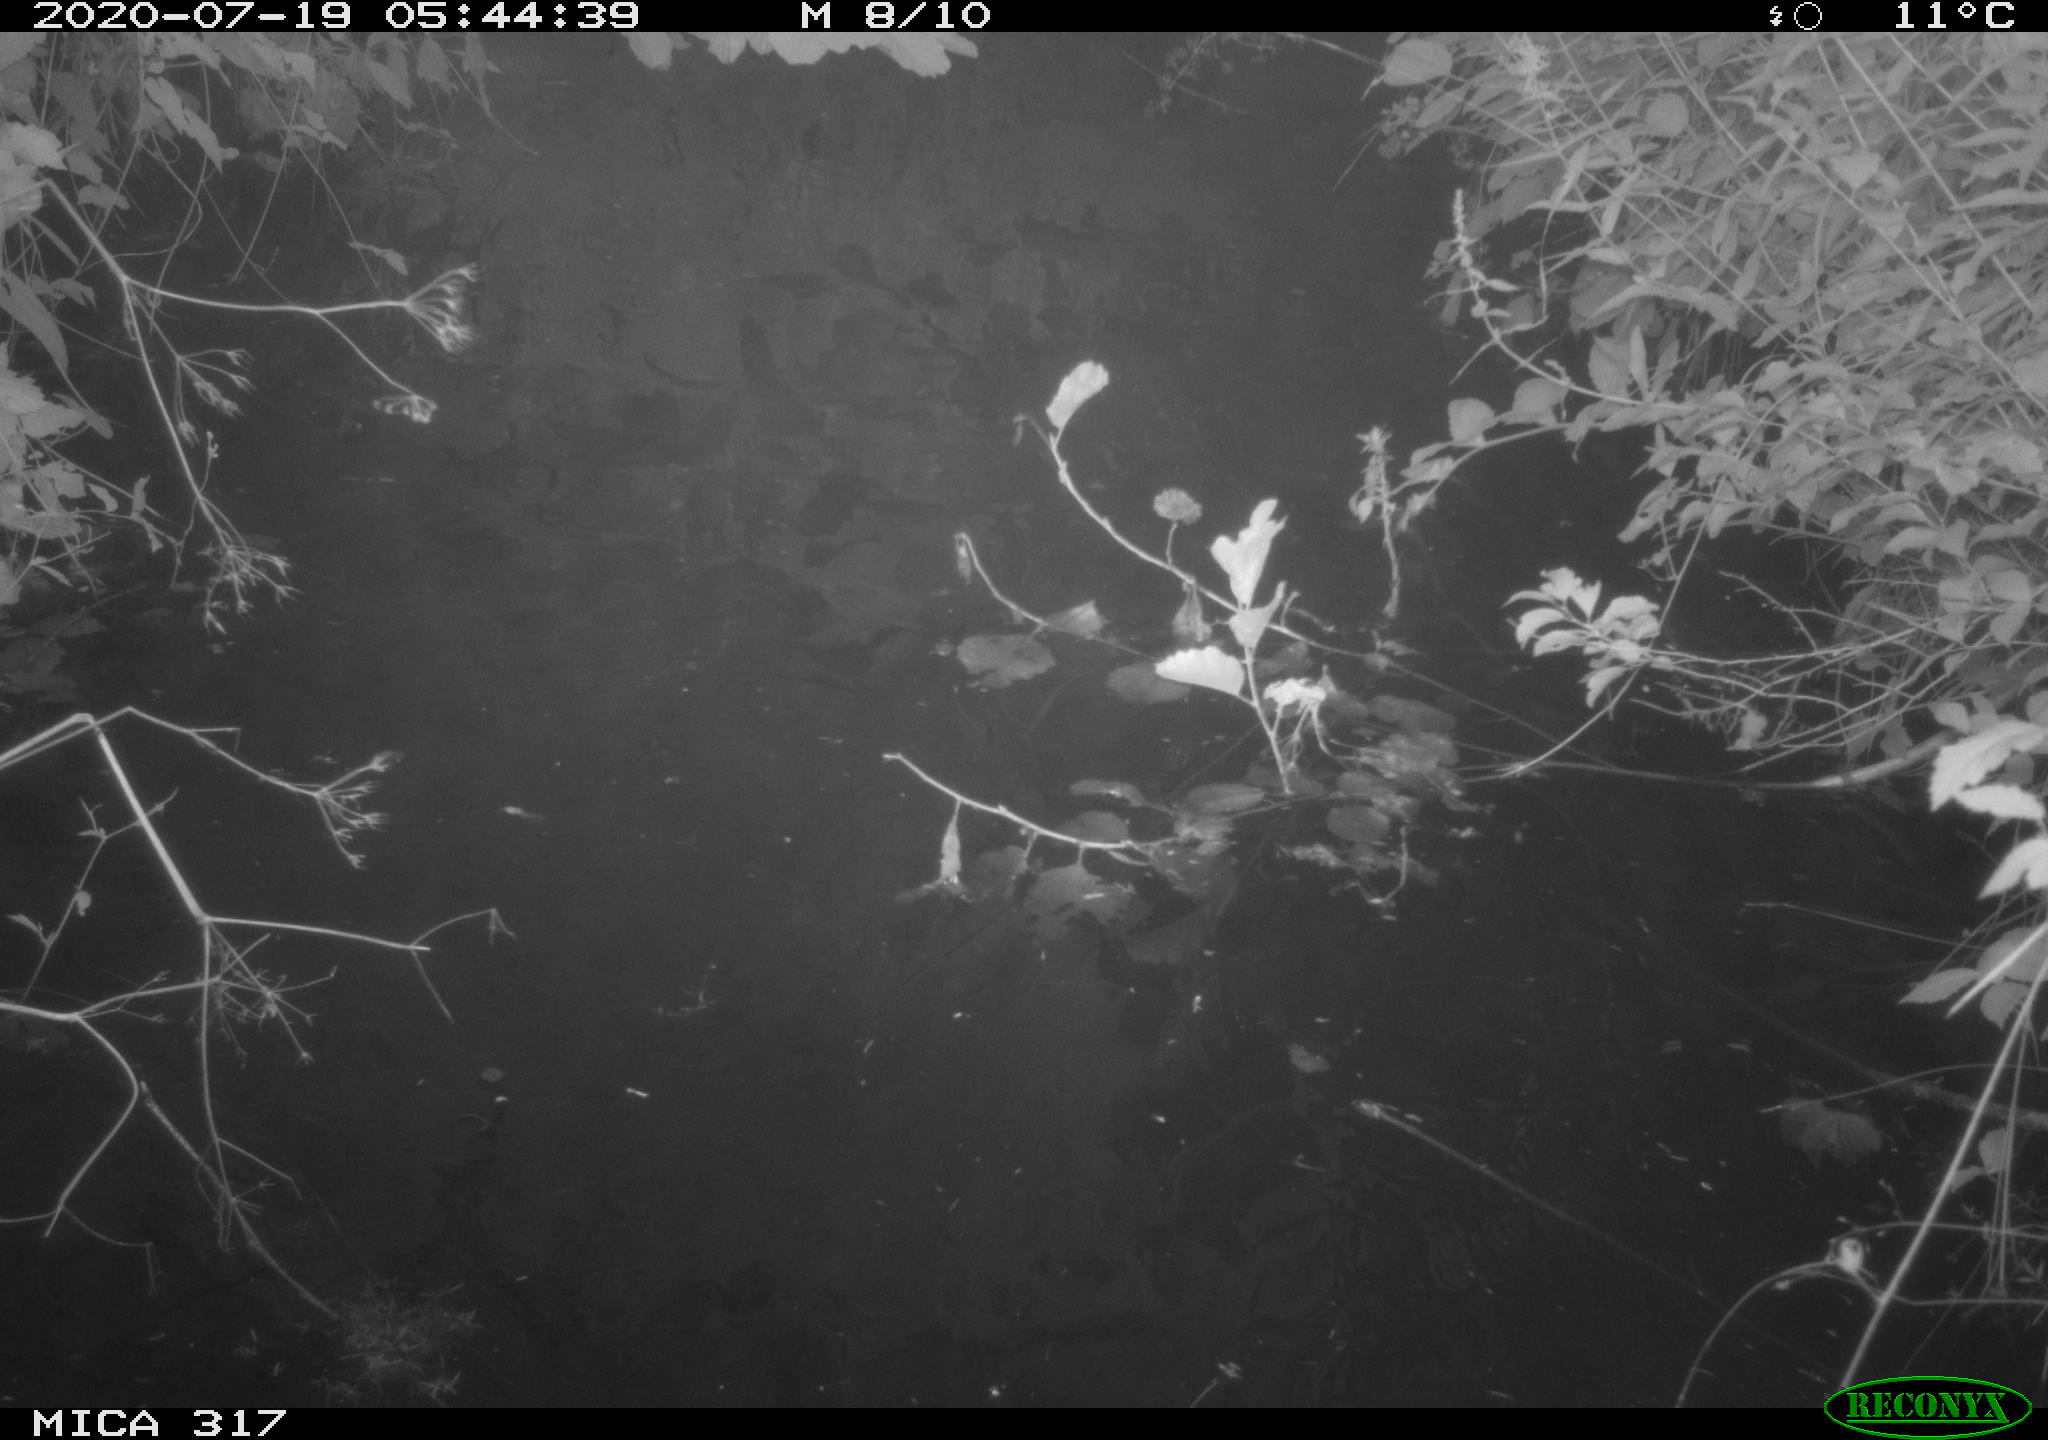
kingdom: Animalia
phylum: Chordata
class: Aves
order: Anseriformes
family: Anatidae
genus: Anas
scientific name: Anas platyrhynchos
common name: Mallard
